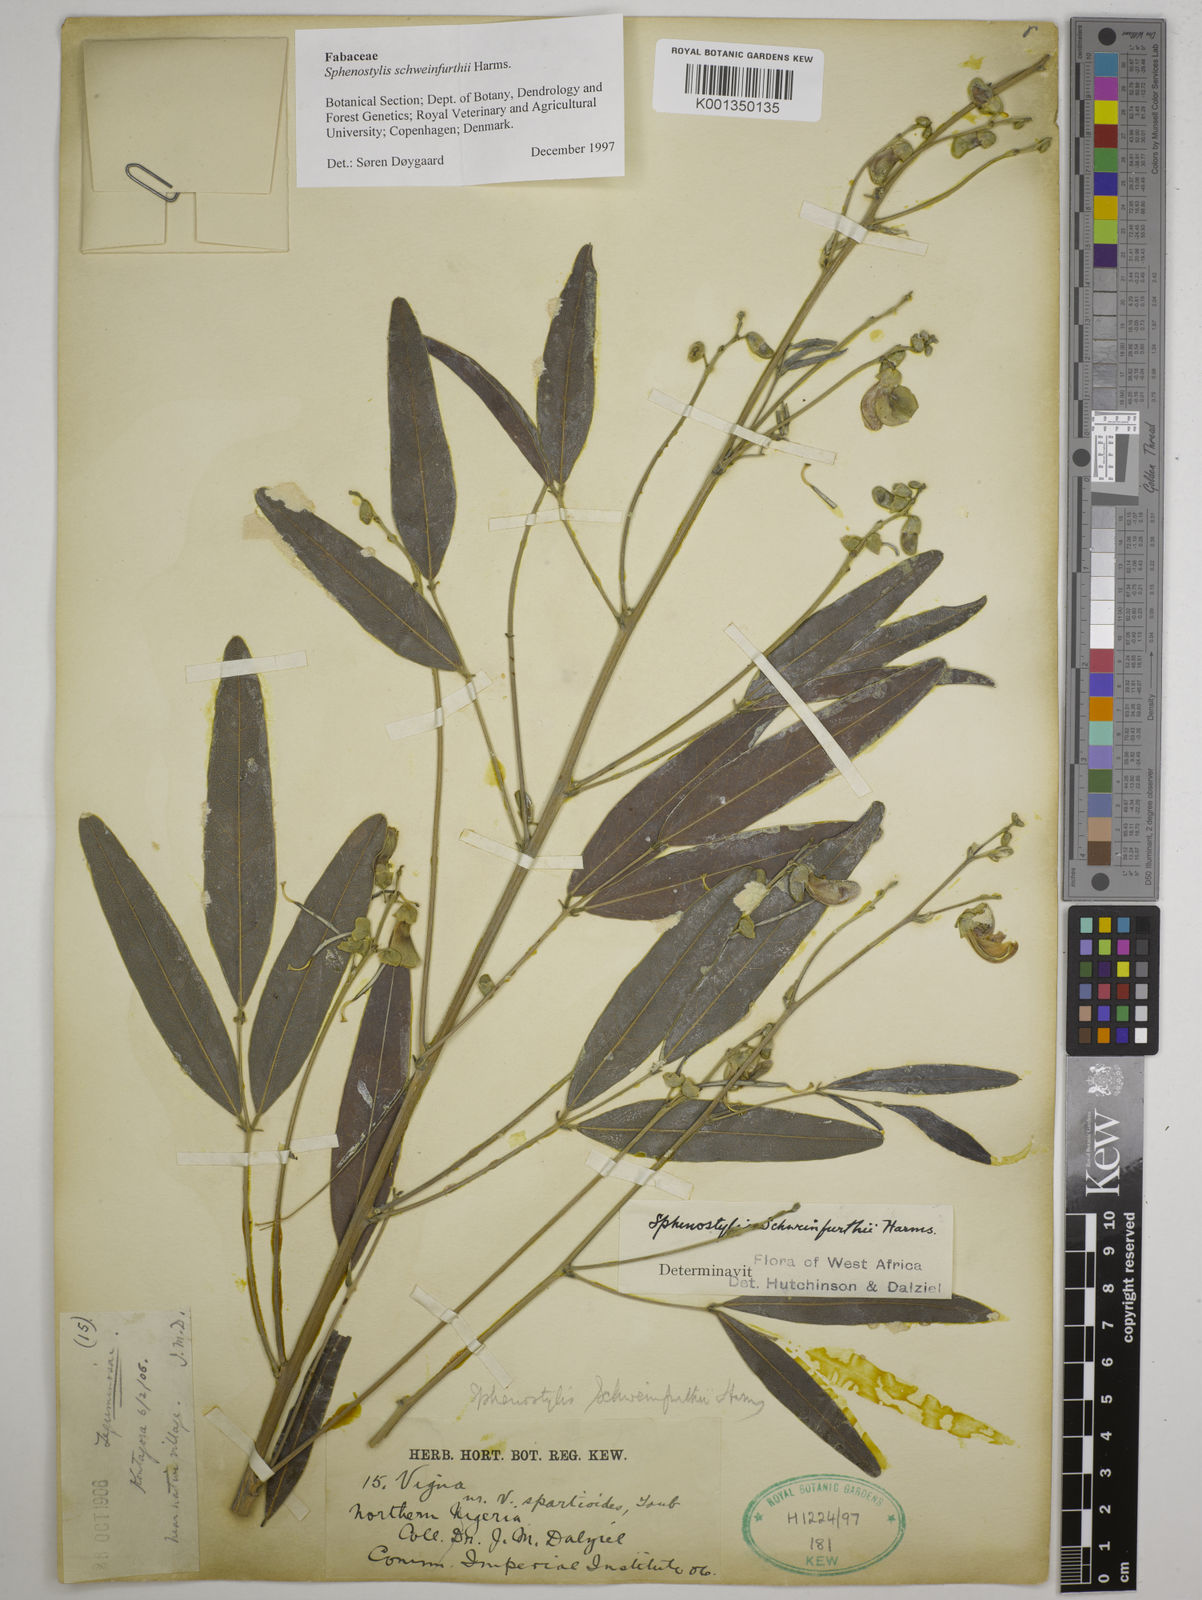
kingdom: Plantae
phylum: Tracheophyta
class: Magnoliopsida
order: Fabales
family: Fabaceae
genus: Sphenostylis
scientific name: Sphenostylis schweinfurthii
